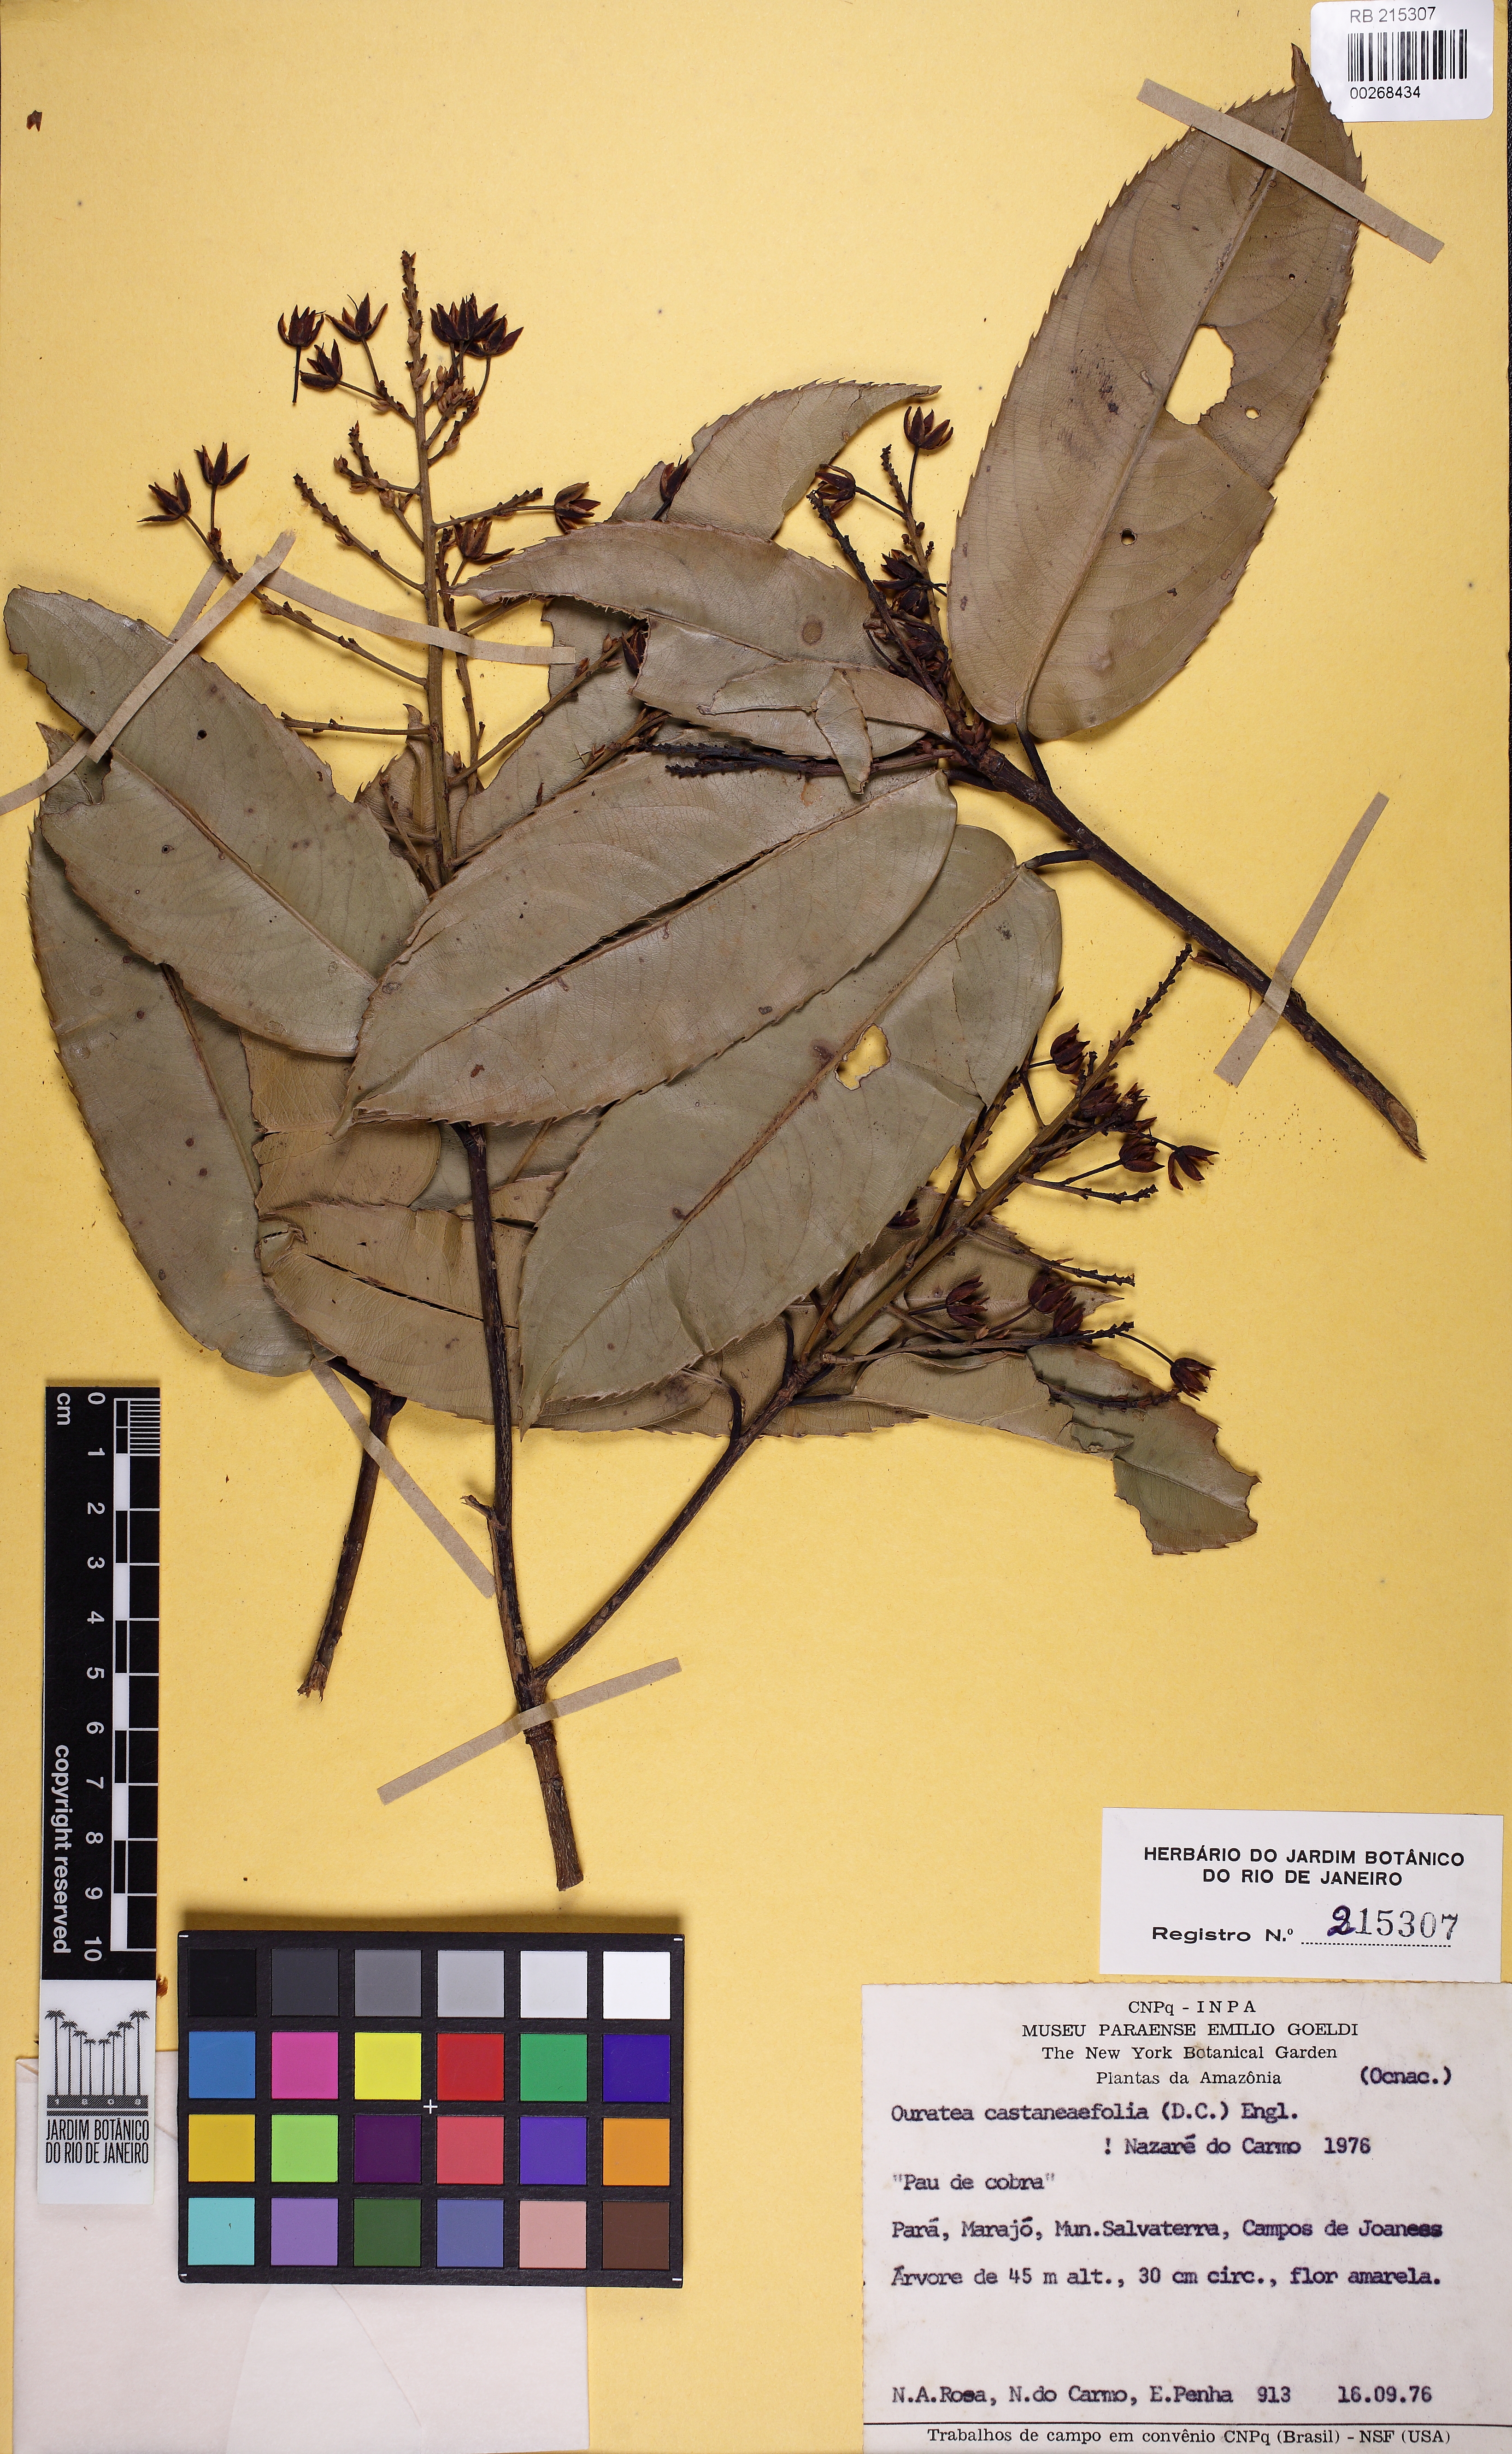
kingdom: Plantae
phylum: Tracheophyta
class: Magnoliopsida
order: Malpighiales
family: Ochnaceae
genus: Ouratea
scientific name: Ouratea castaneifolia
